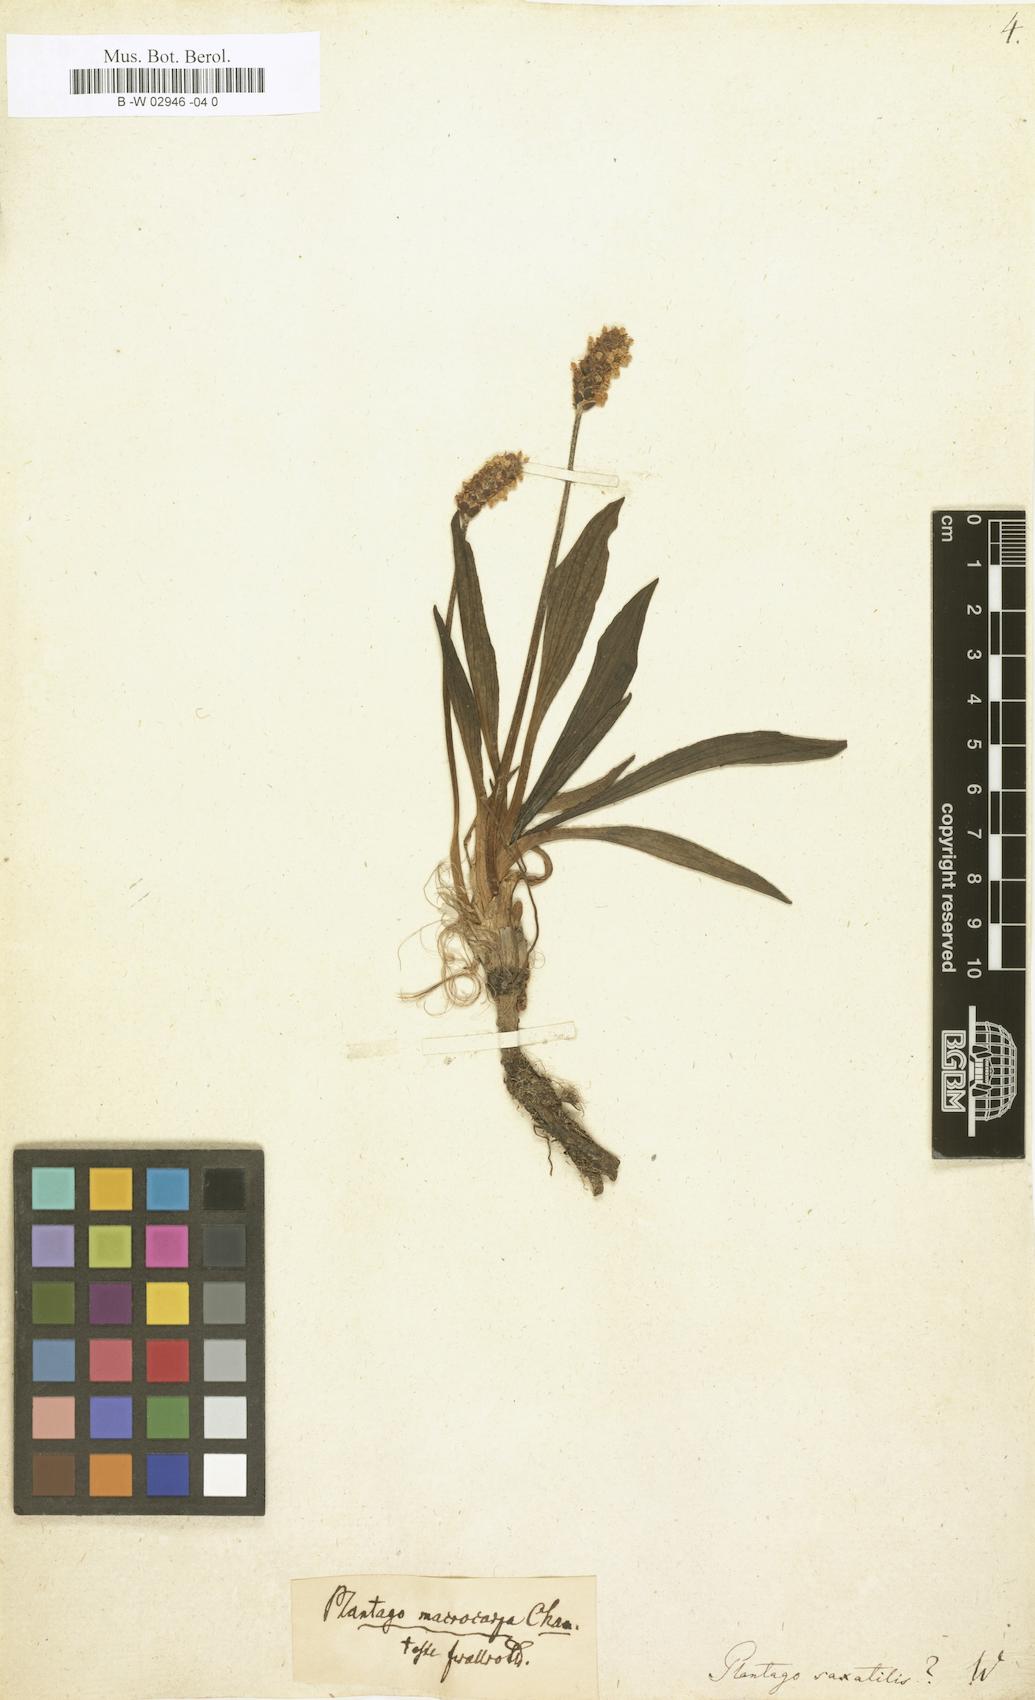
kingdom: Plantae
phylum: Tracheophyta
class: Magnoliopsida
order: Lamiales
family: Plantaginaceae
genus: Plantago
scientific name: Plantago atrata
